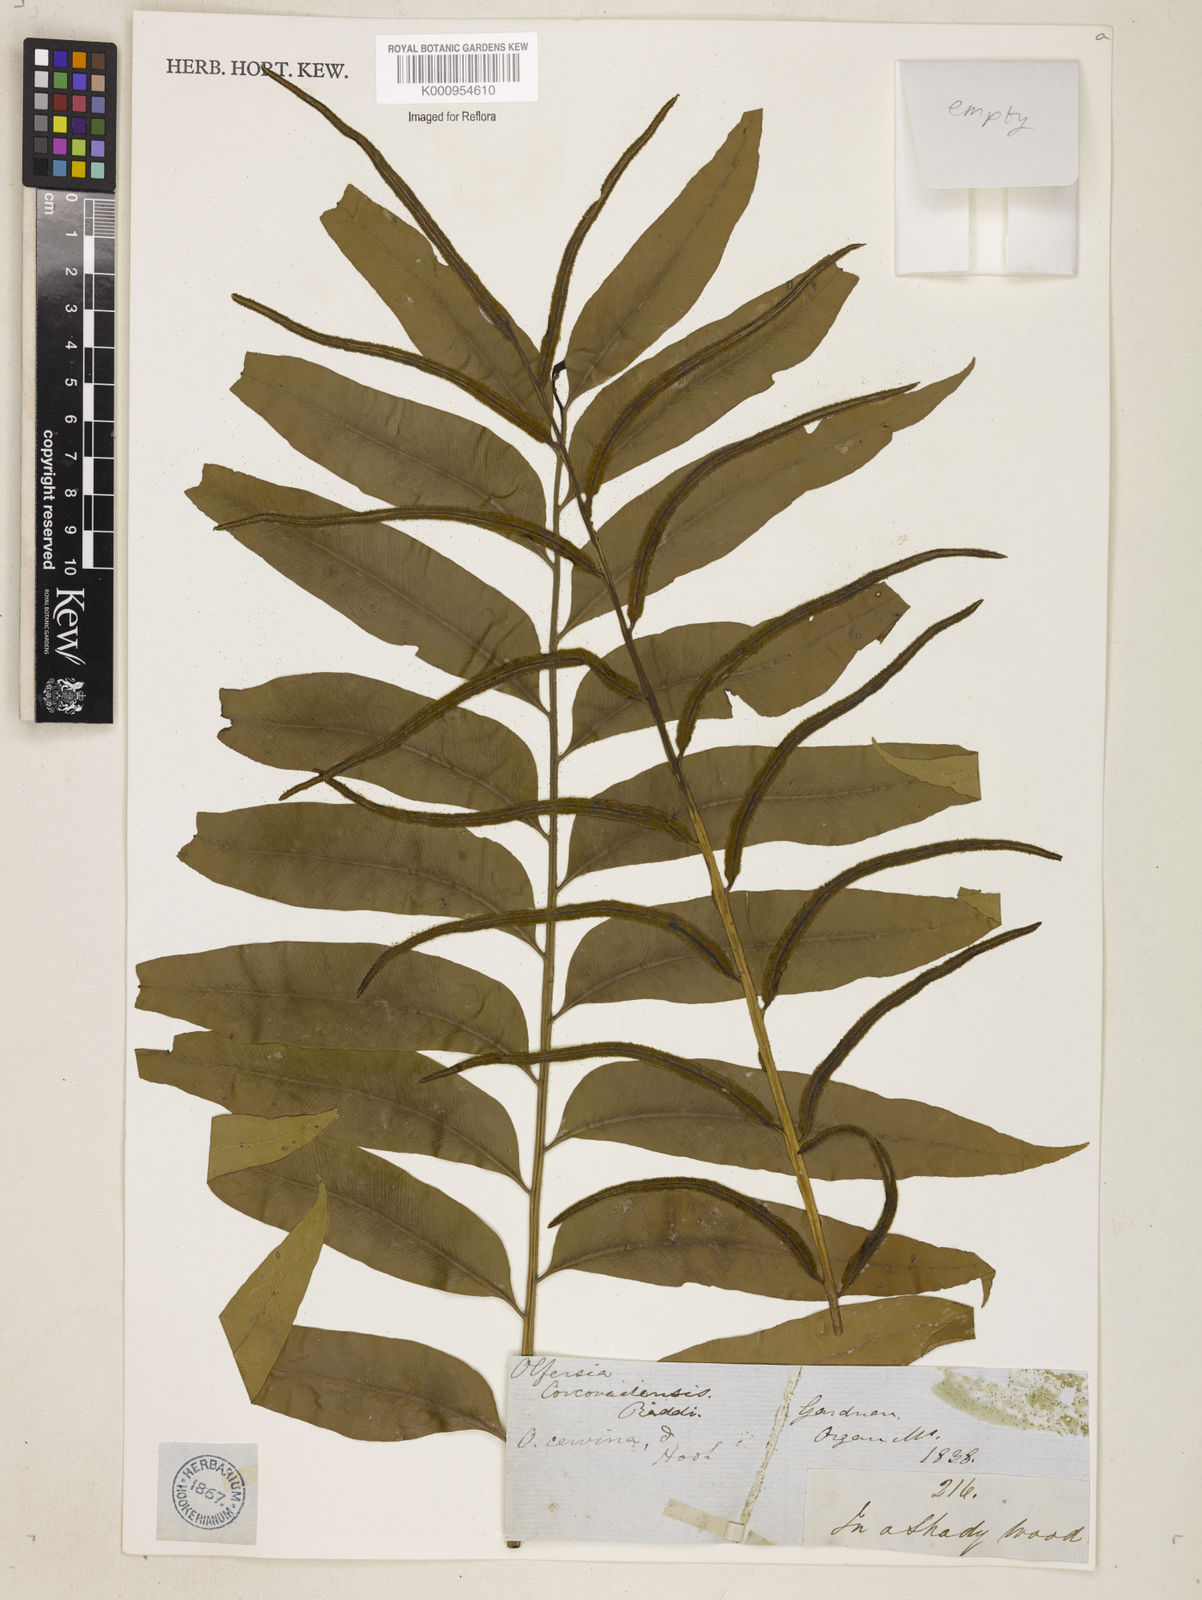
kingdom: Plantae
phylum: Tracheophyta
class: Polypodiopsida
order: Polypodiales
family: Dryopteridaceae
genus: Polystichum
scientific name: Polystichum
